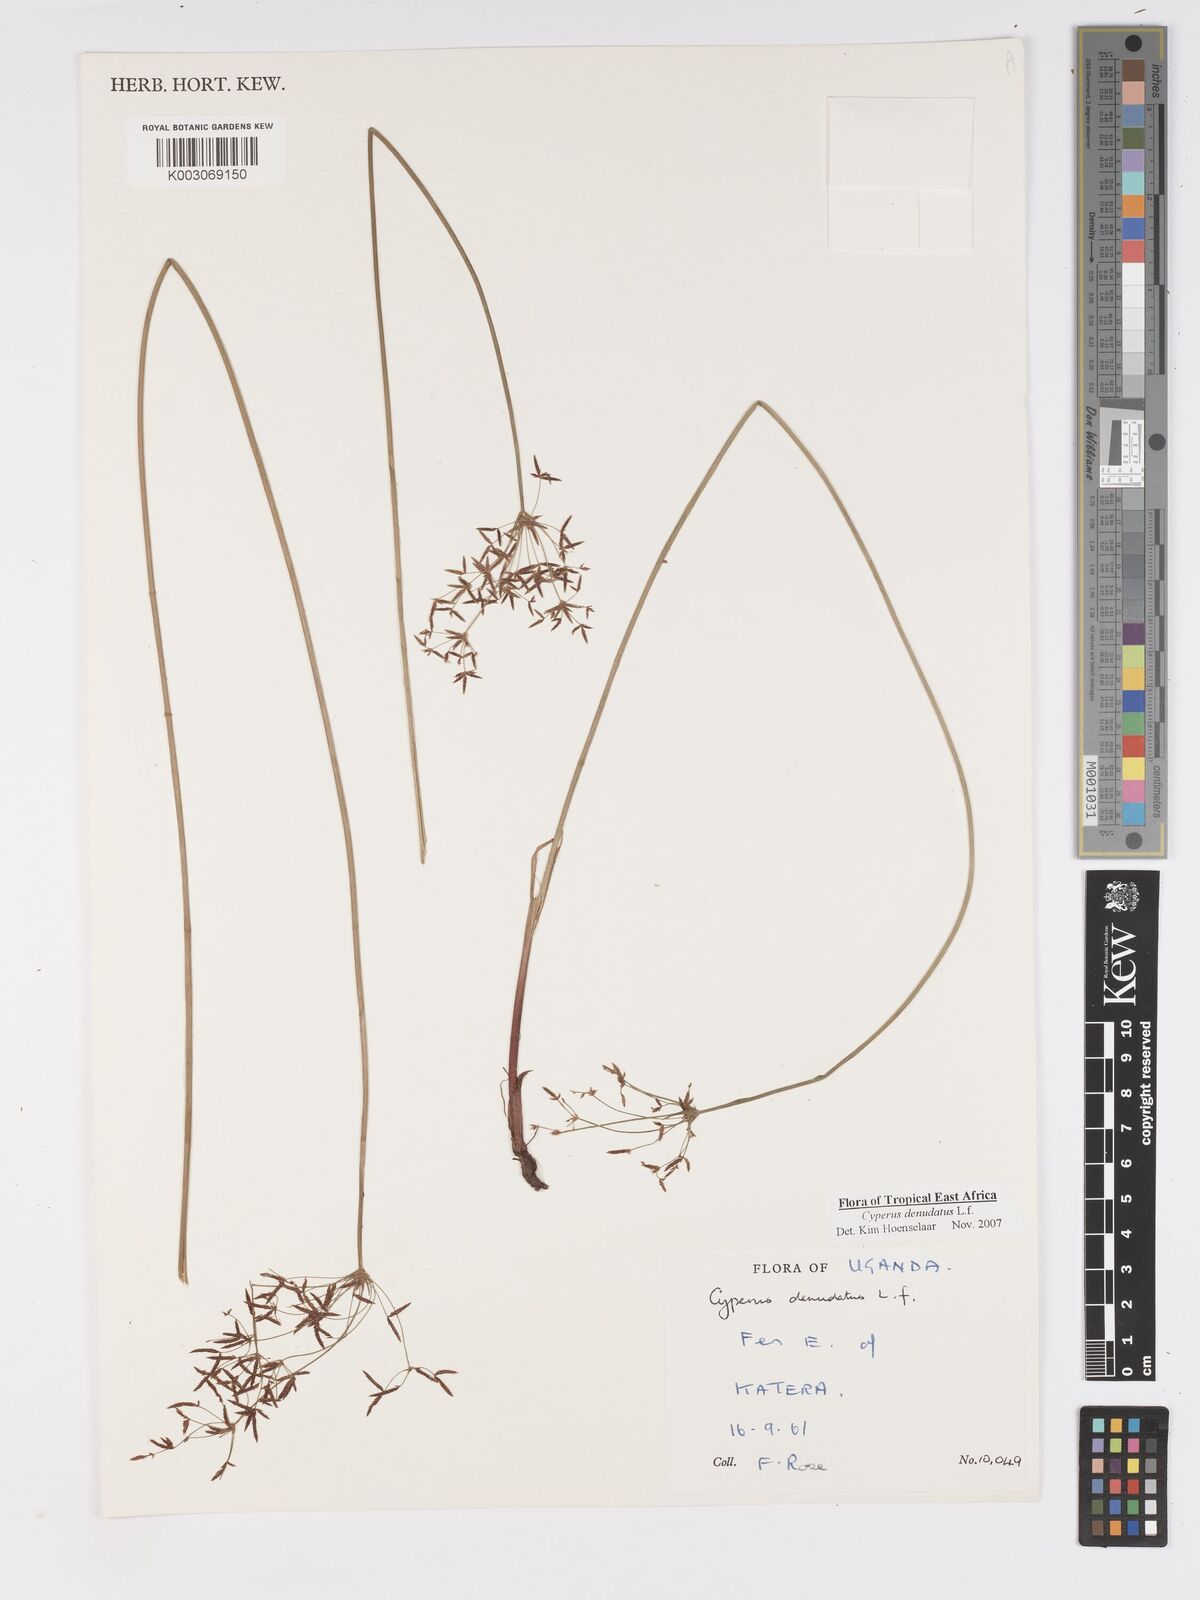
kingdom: Plantae
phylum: Tracheophyta
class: Liliopsida
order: Poales
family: Cyperaceae
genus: Cyperus
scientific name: Cyperus denudatus
